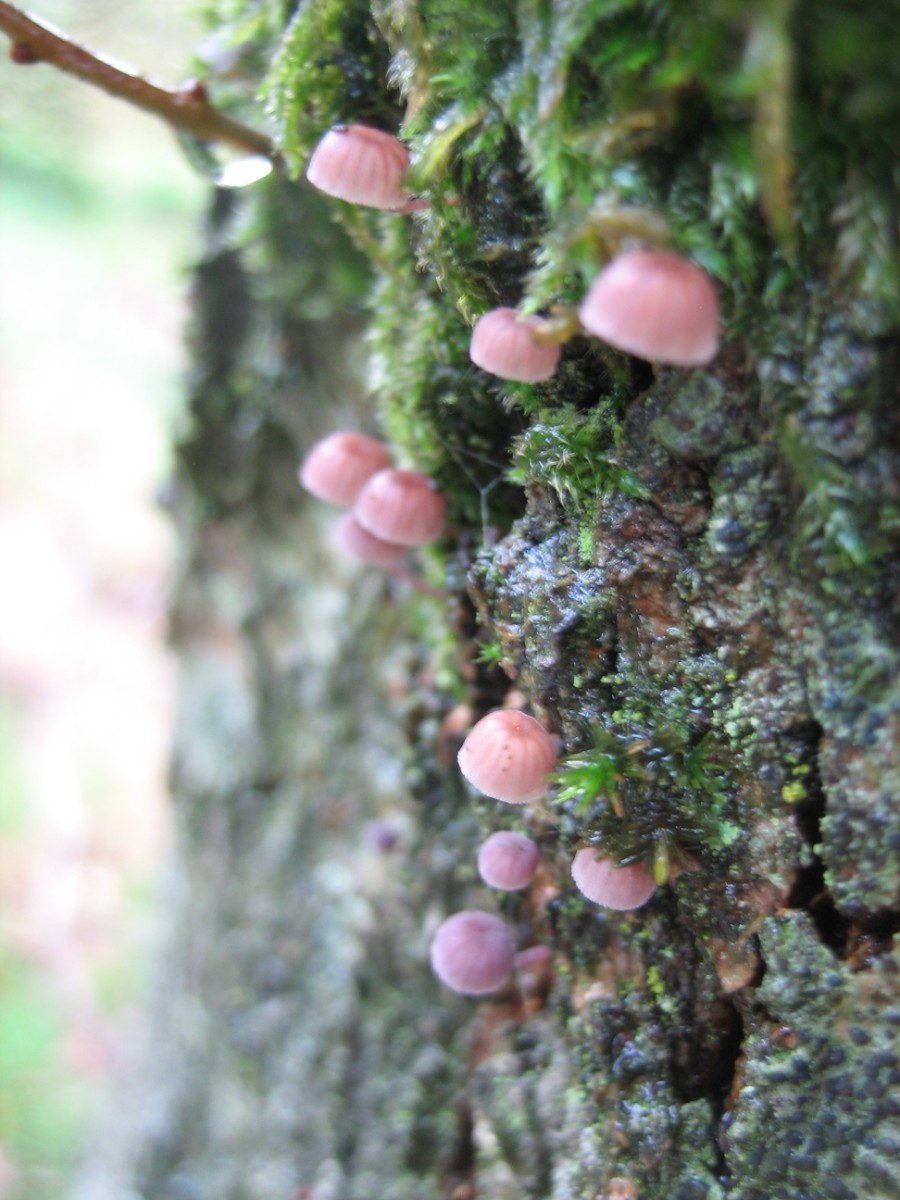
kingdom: Fungi
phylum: Basidiomycota
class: Agaricomycetes
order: Agaricales
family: Mycenaceae
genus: Mycena
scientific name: Mycena meliigena
